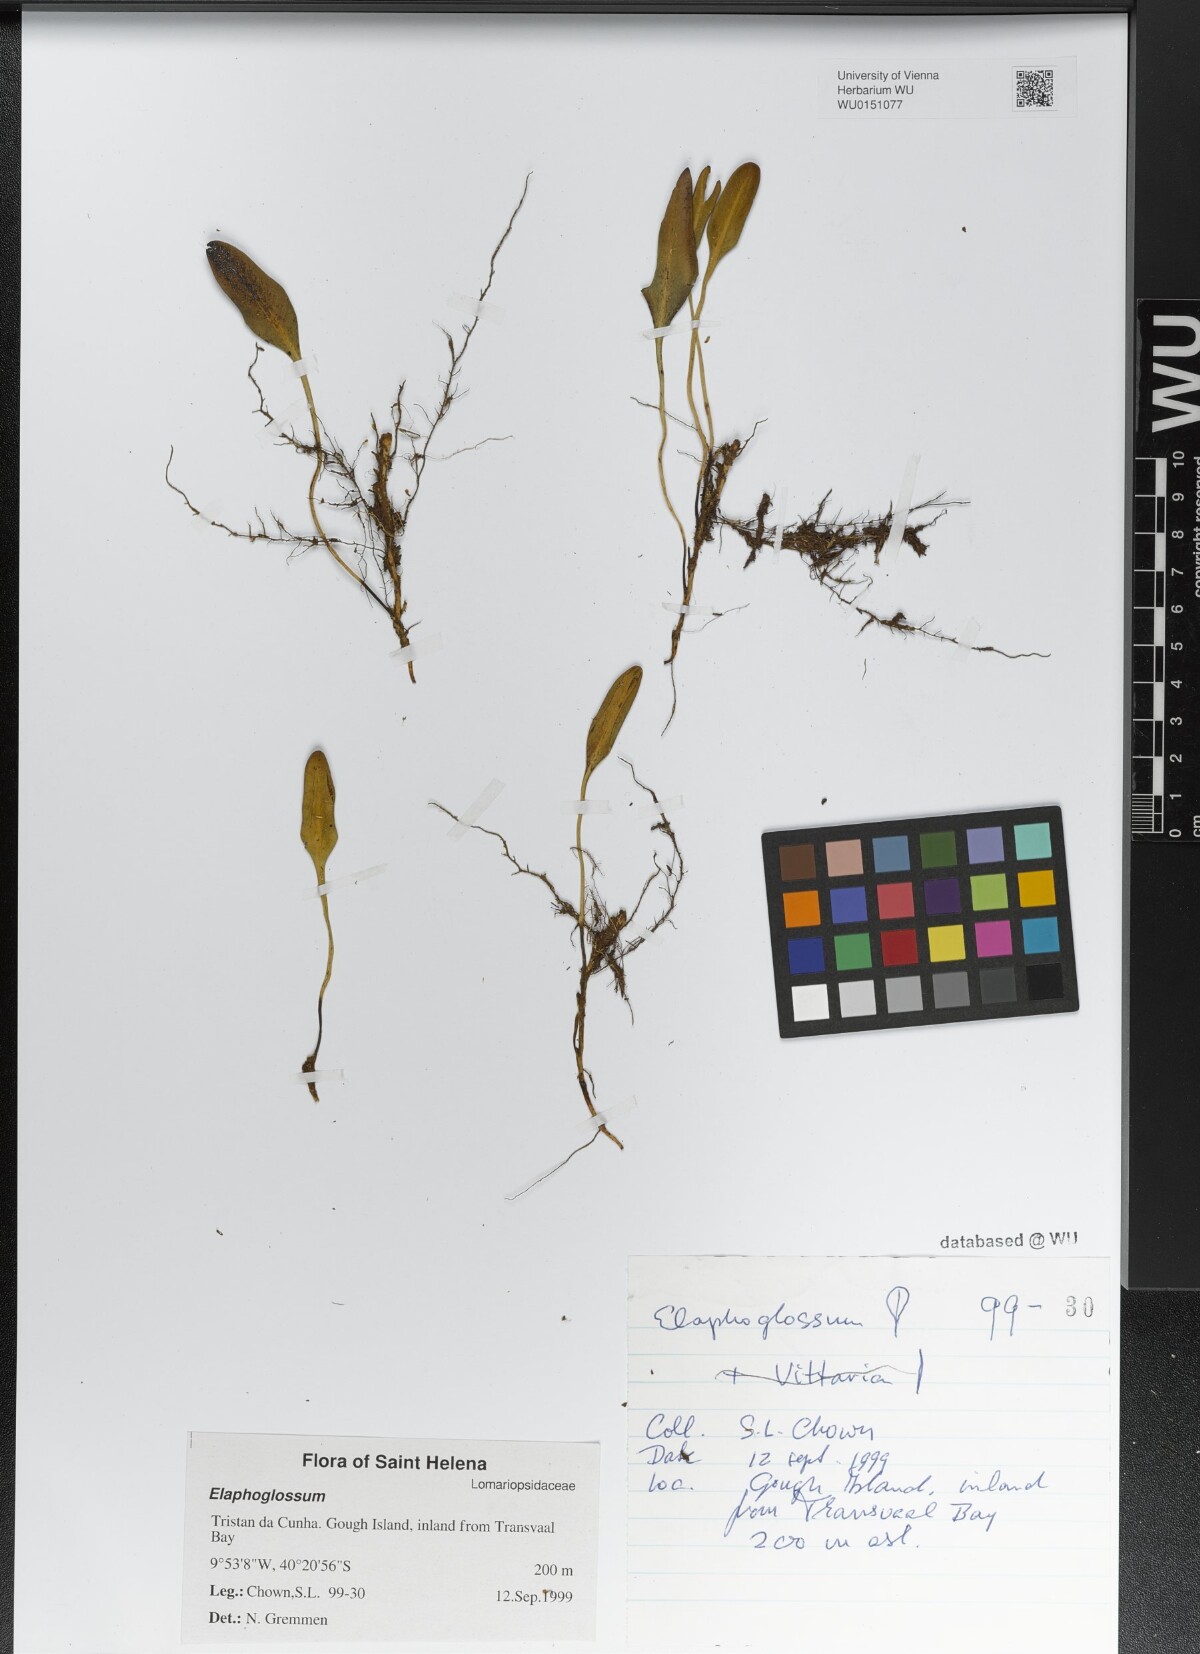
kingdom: Plantae
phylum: Tracheophyta
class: Polypodiopsida
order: Polypodiales
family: Dryopteridaceae
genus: Elaphoglossum
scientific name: Elaphoglossum
